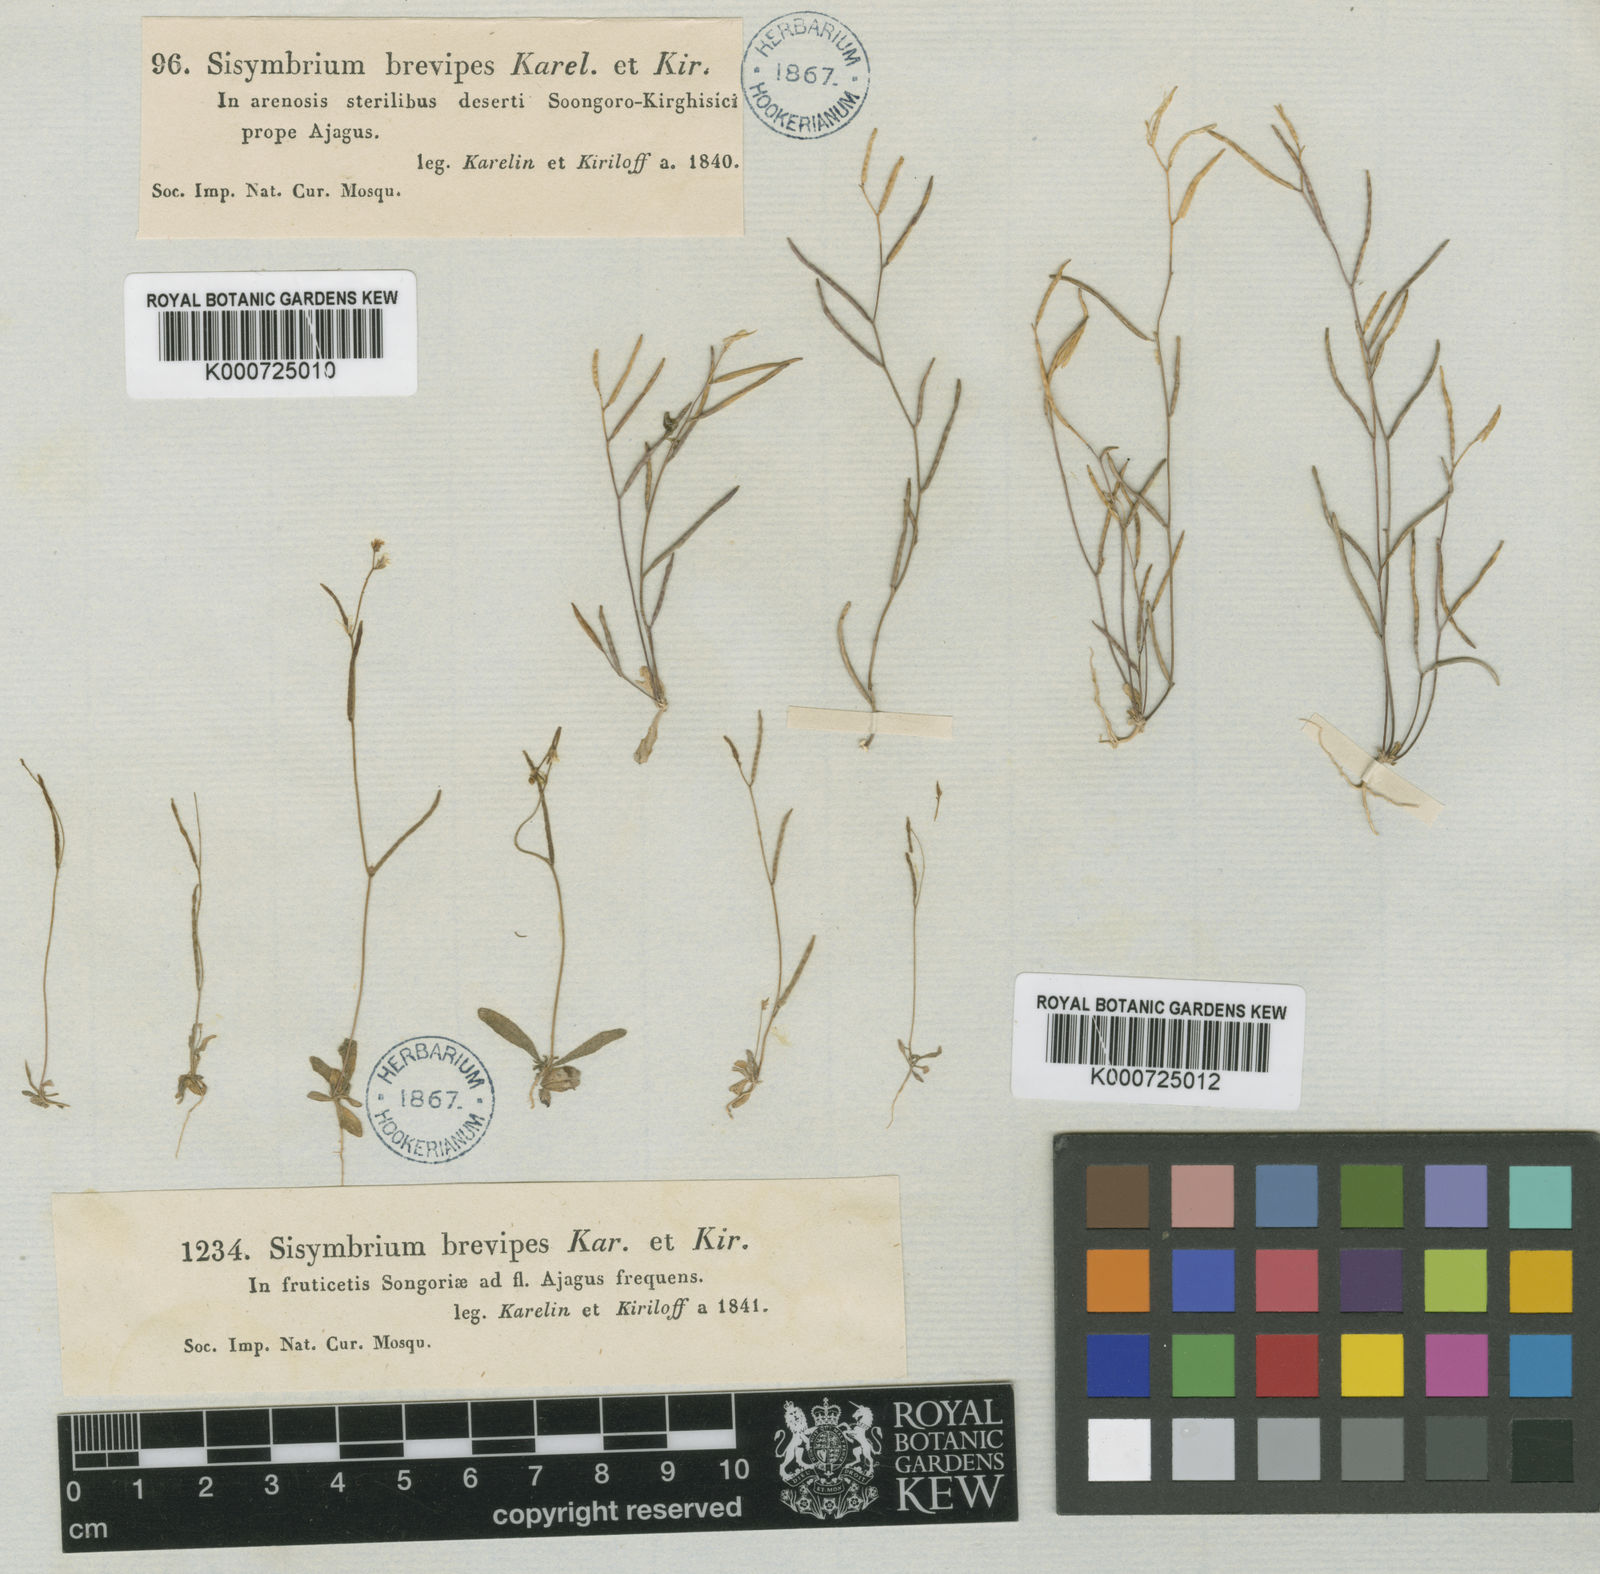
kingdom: Plantae
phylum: Tracheophyta
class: Magnoliopsida
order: Brassicales
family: Brassicaceae
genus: Neotorularia
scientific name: Neotorularia
